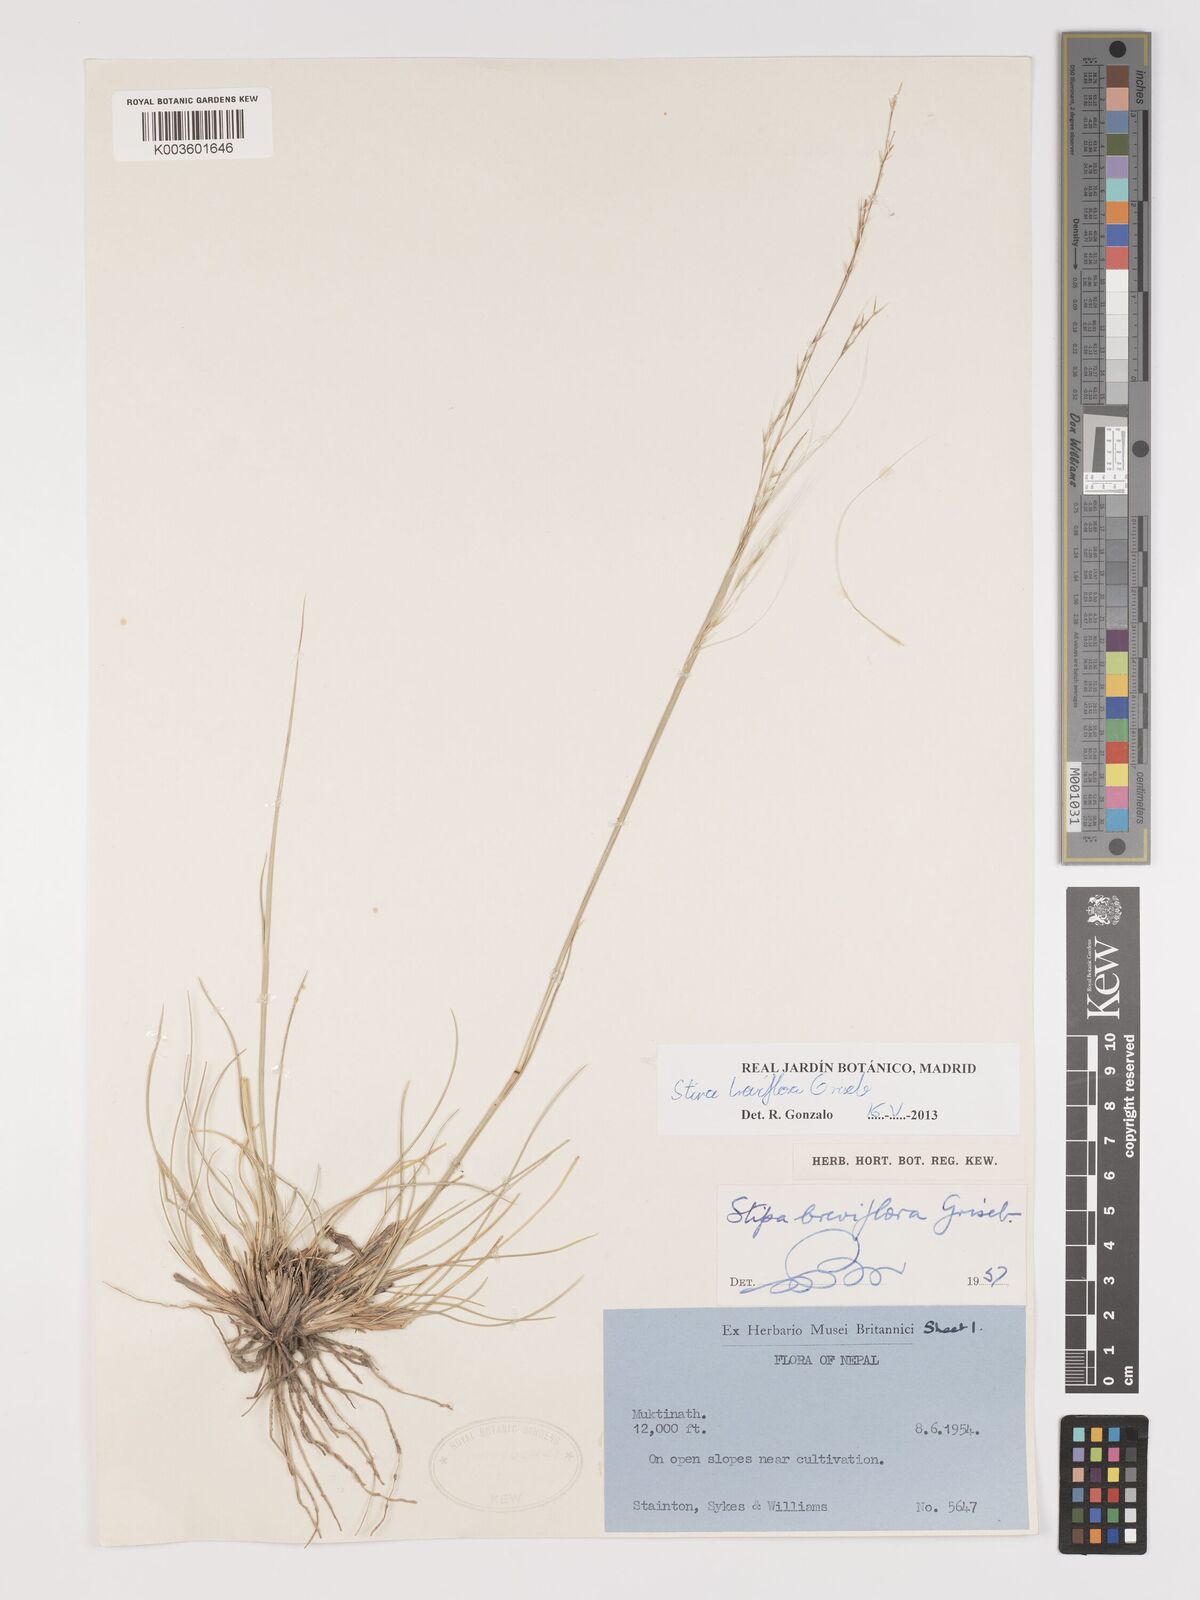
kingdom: Plantae
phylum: Tracheophyta
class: Liliopsida
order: Poales
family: Poaceae
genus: Stipa
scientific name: Stipa breviflora
